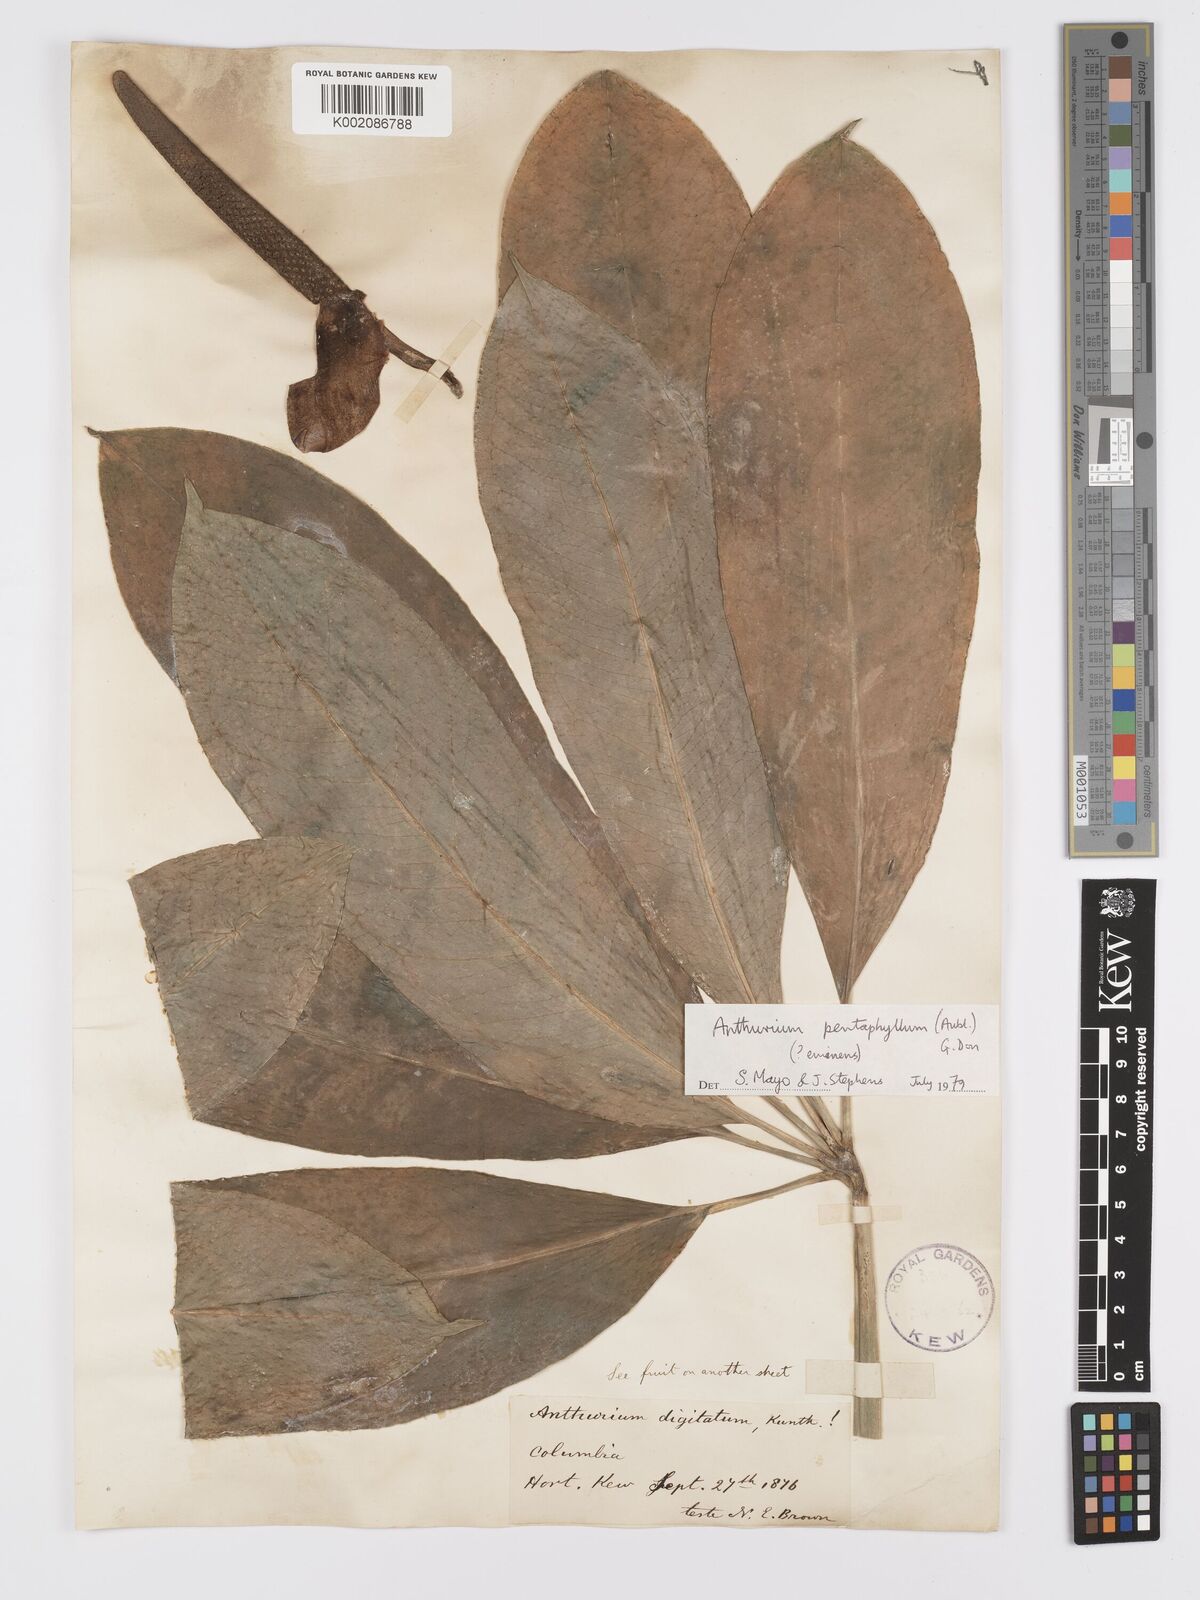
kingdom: Plantae
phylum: Tracheophyta
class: Liliopsida
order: Alismatales
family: Araceae
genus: Anthurium
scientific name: Anthurium pentaphyllum
